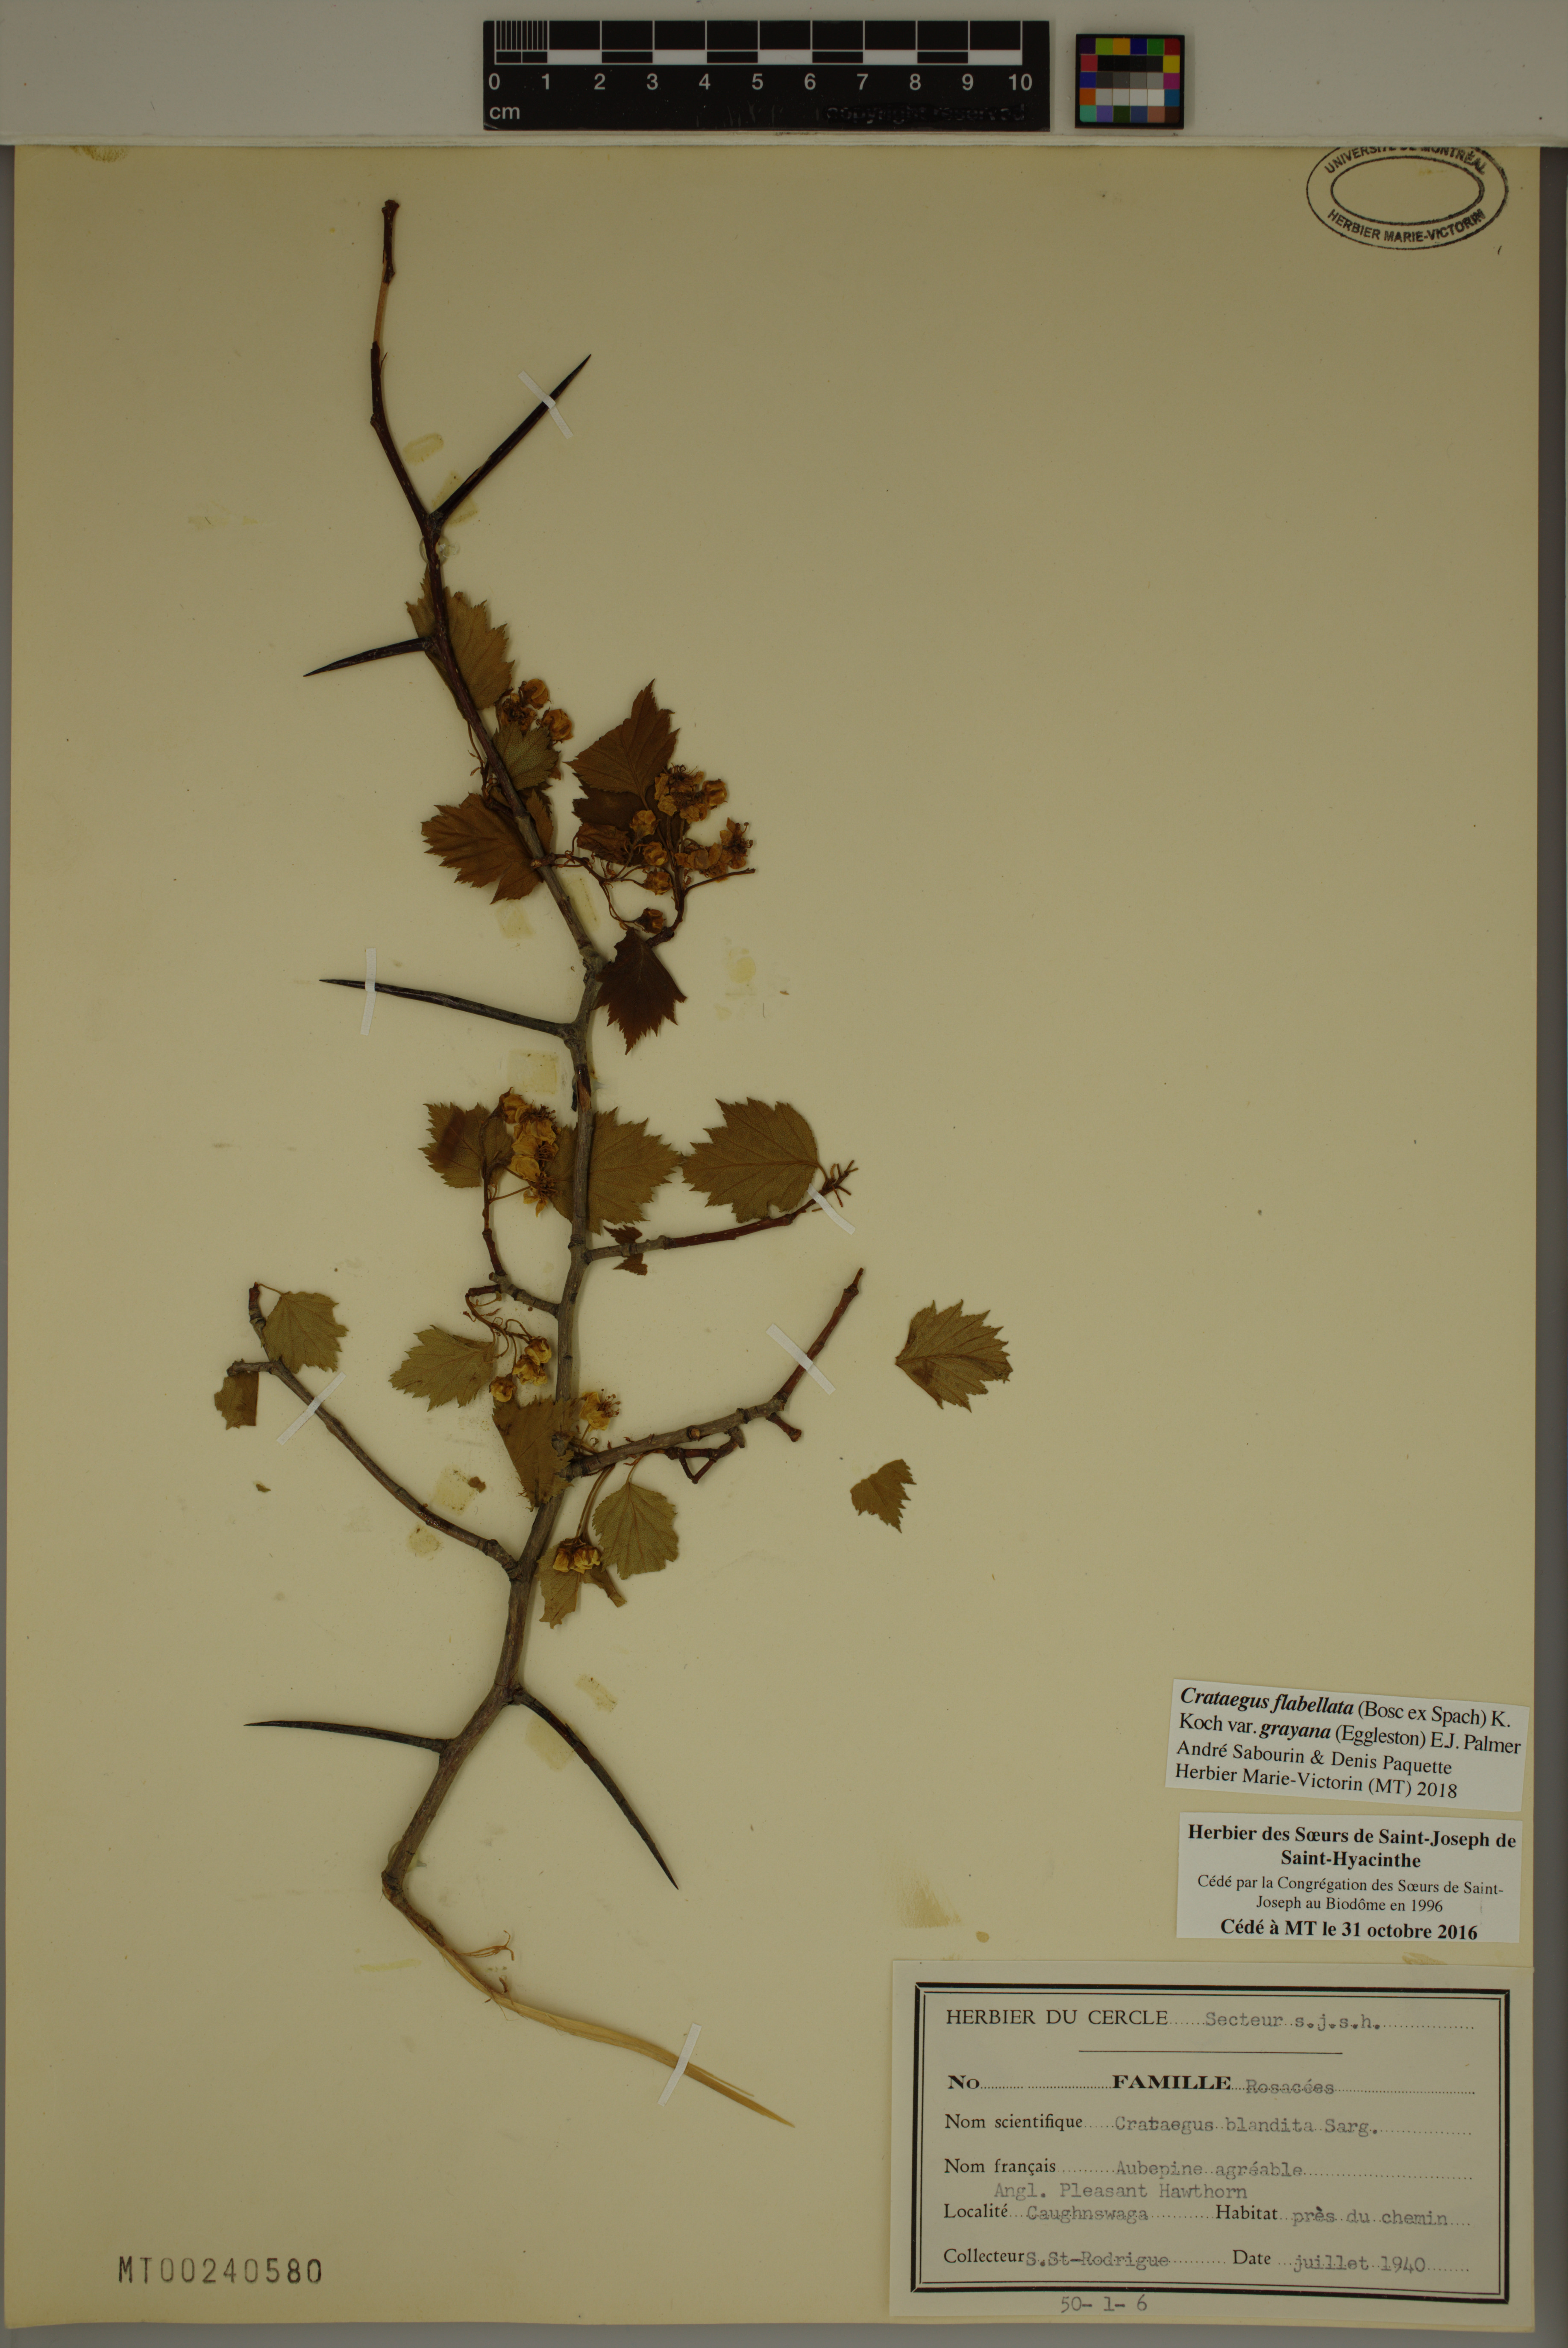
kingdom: Plantae
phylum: Tracheophyta
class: Magnoliopsida
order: Rosales
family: Rosaceae
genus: Crataegus
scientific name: Crataegus flabellata
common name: Bosc's hawthorn
